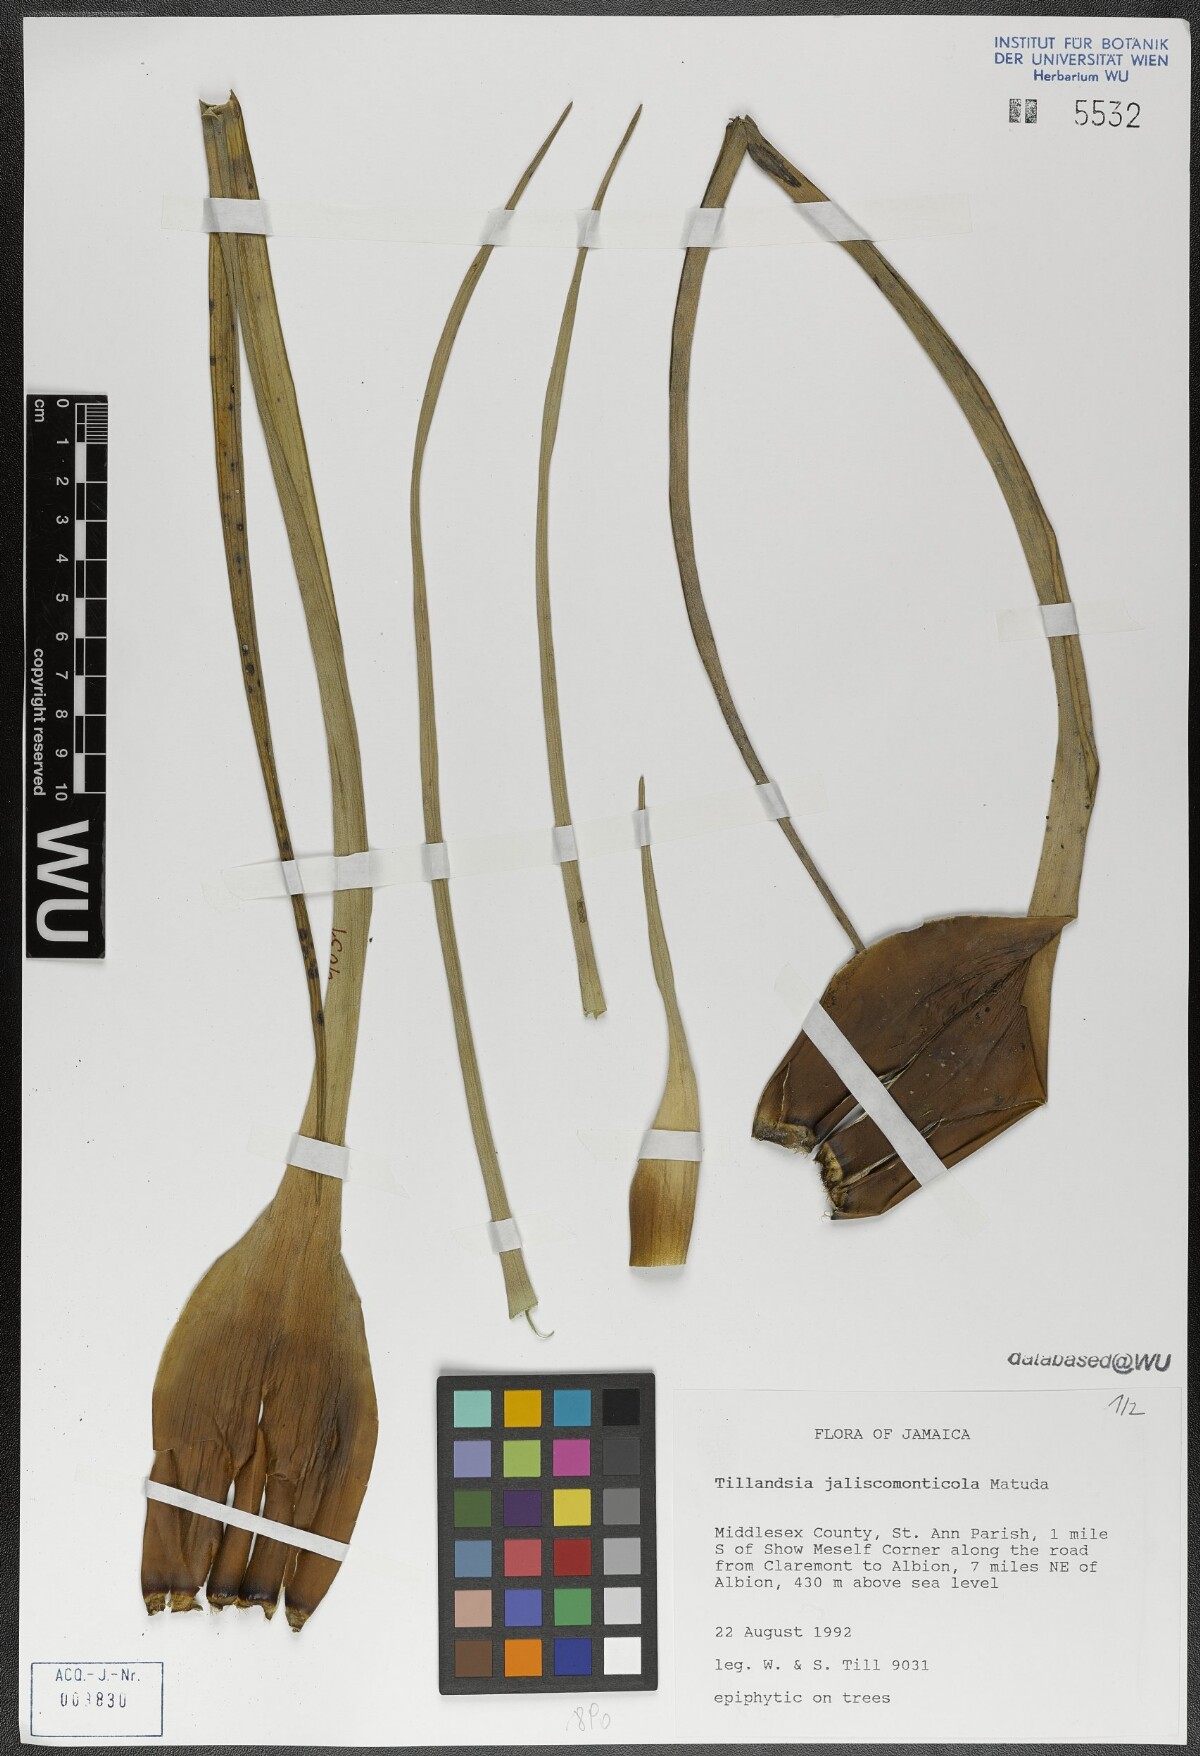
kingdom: Plantae
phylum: Tracheophyta
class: Liliopsida
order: Poales
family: Bromeliaceae
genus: Tillandsia
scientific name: Tillandsia compressa
